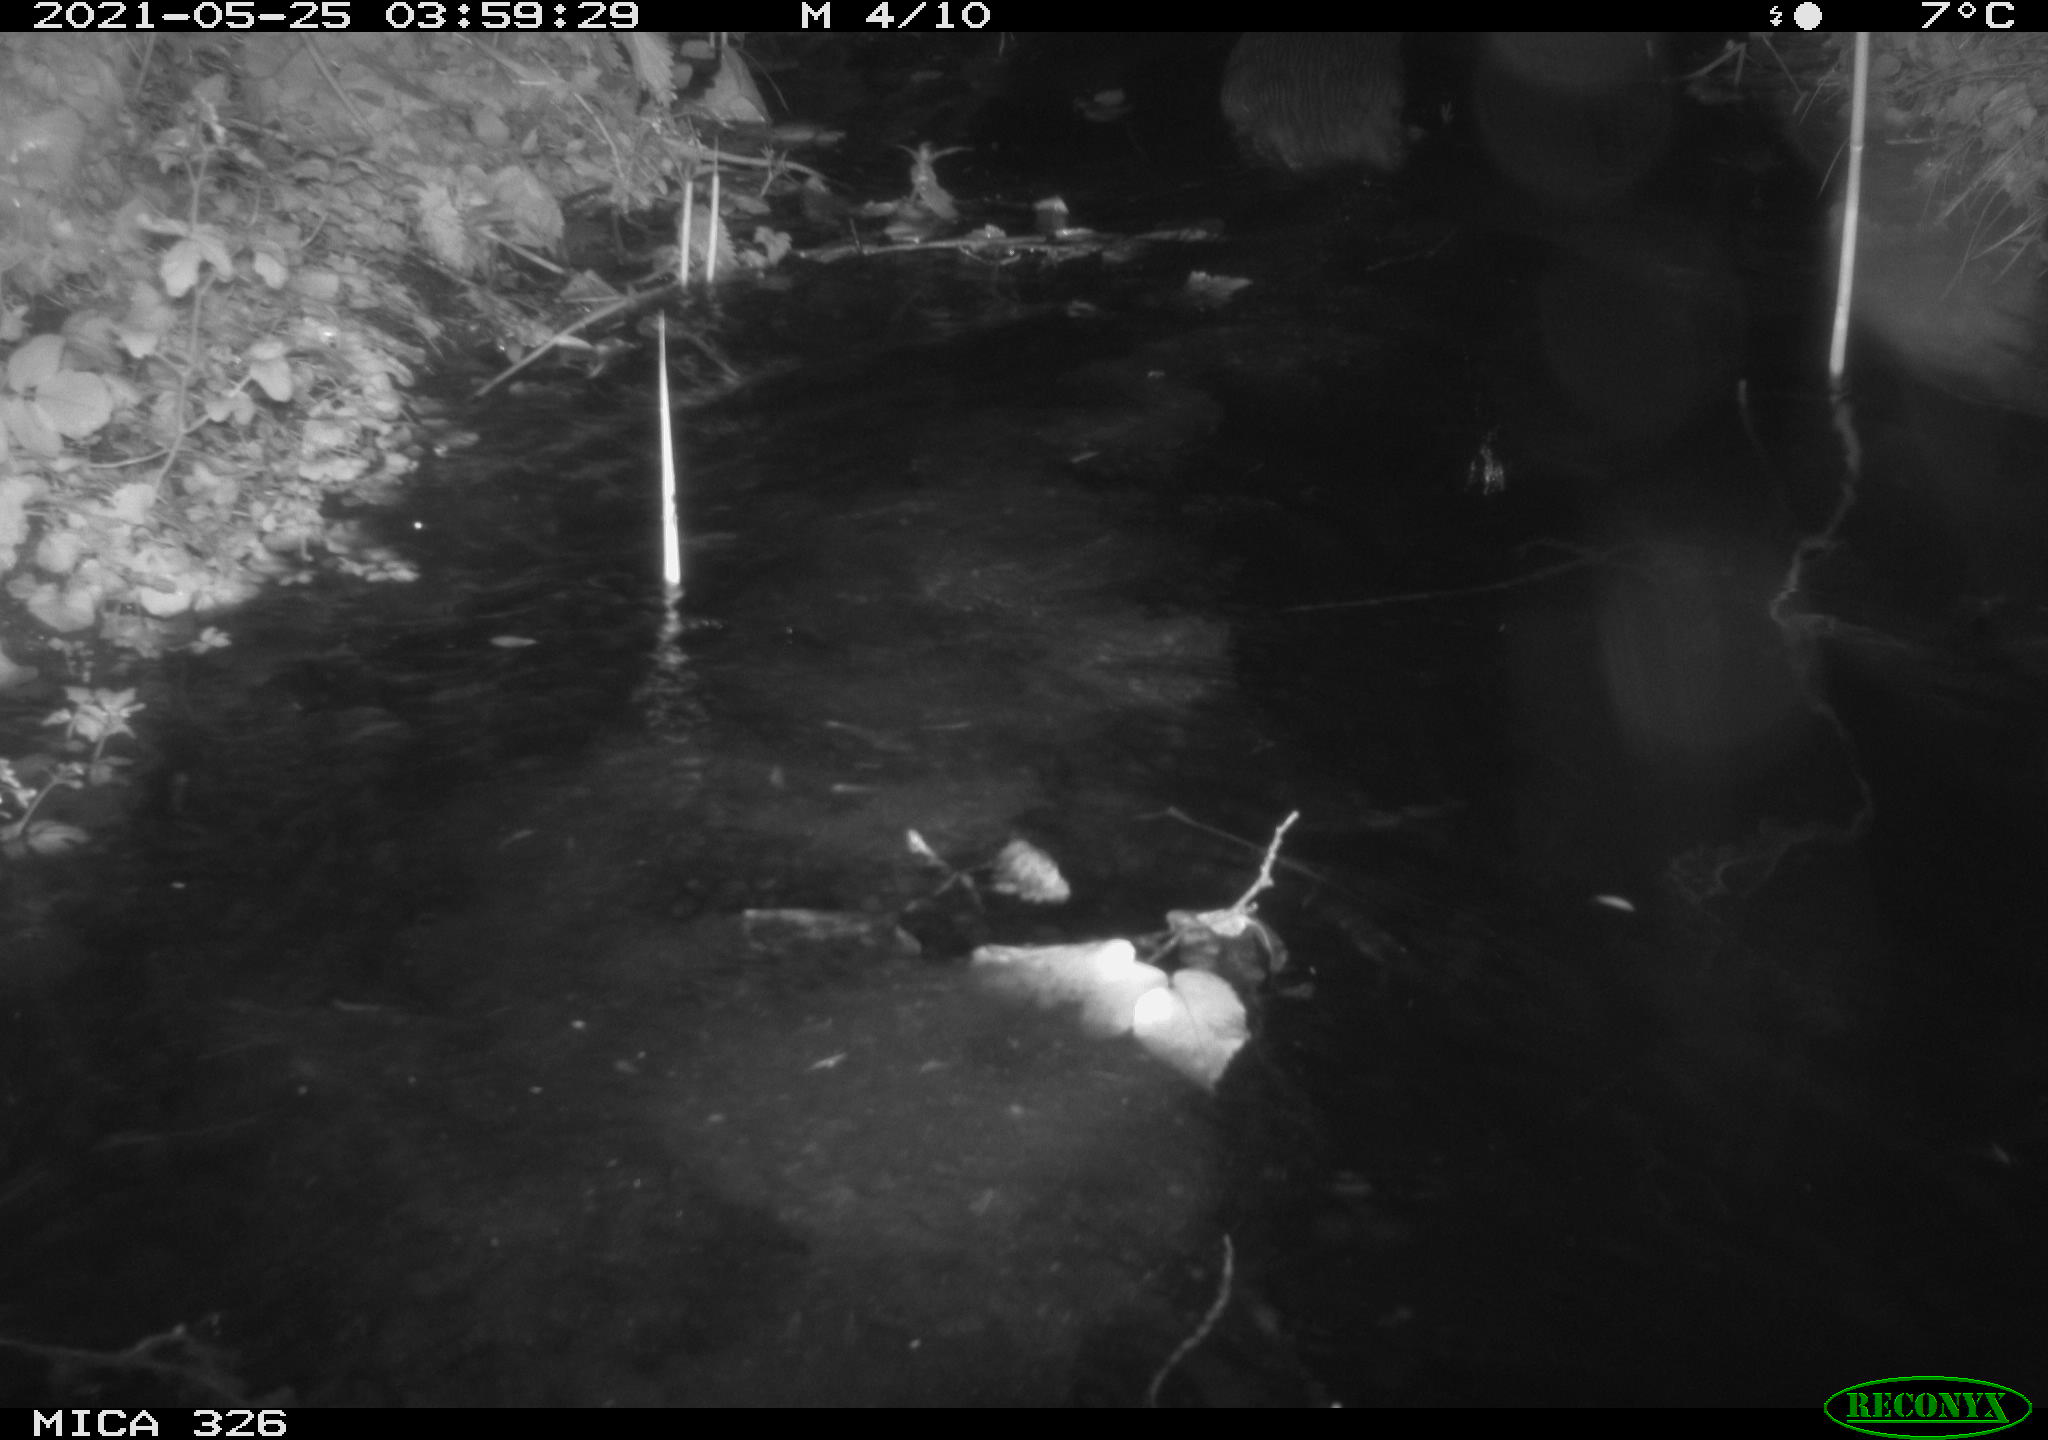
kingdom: Animalia
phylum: Chordata
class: Mammalia
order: Carnivora
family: Mustelidae
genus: Lutra
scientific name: Lutra lutra
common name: European otter
